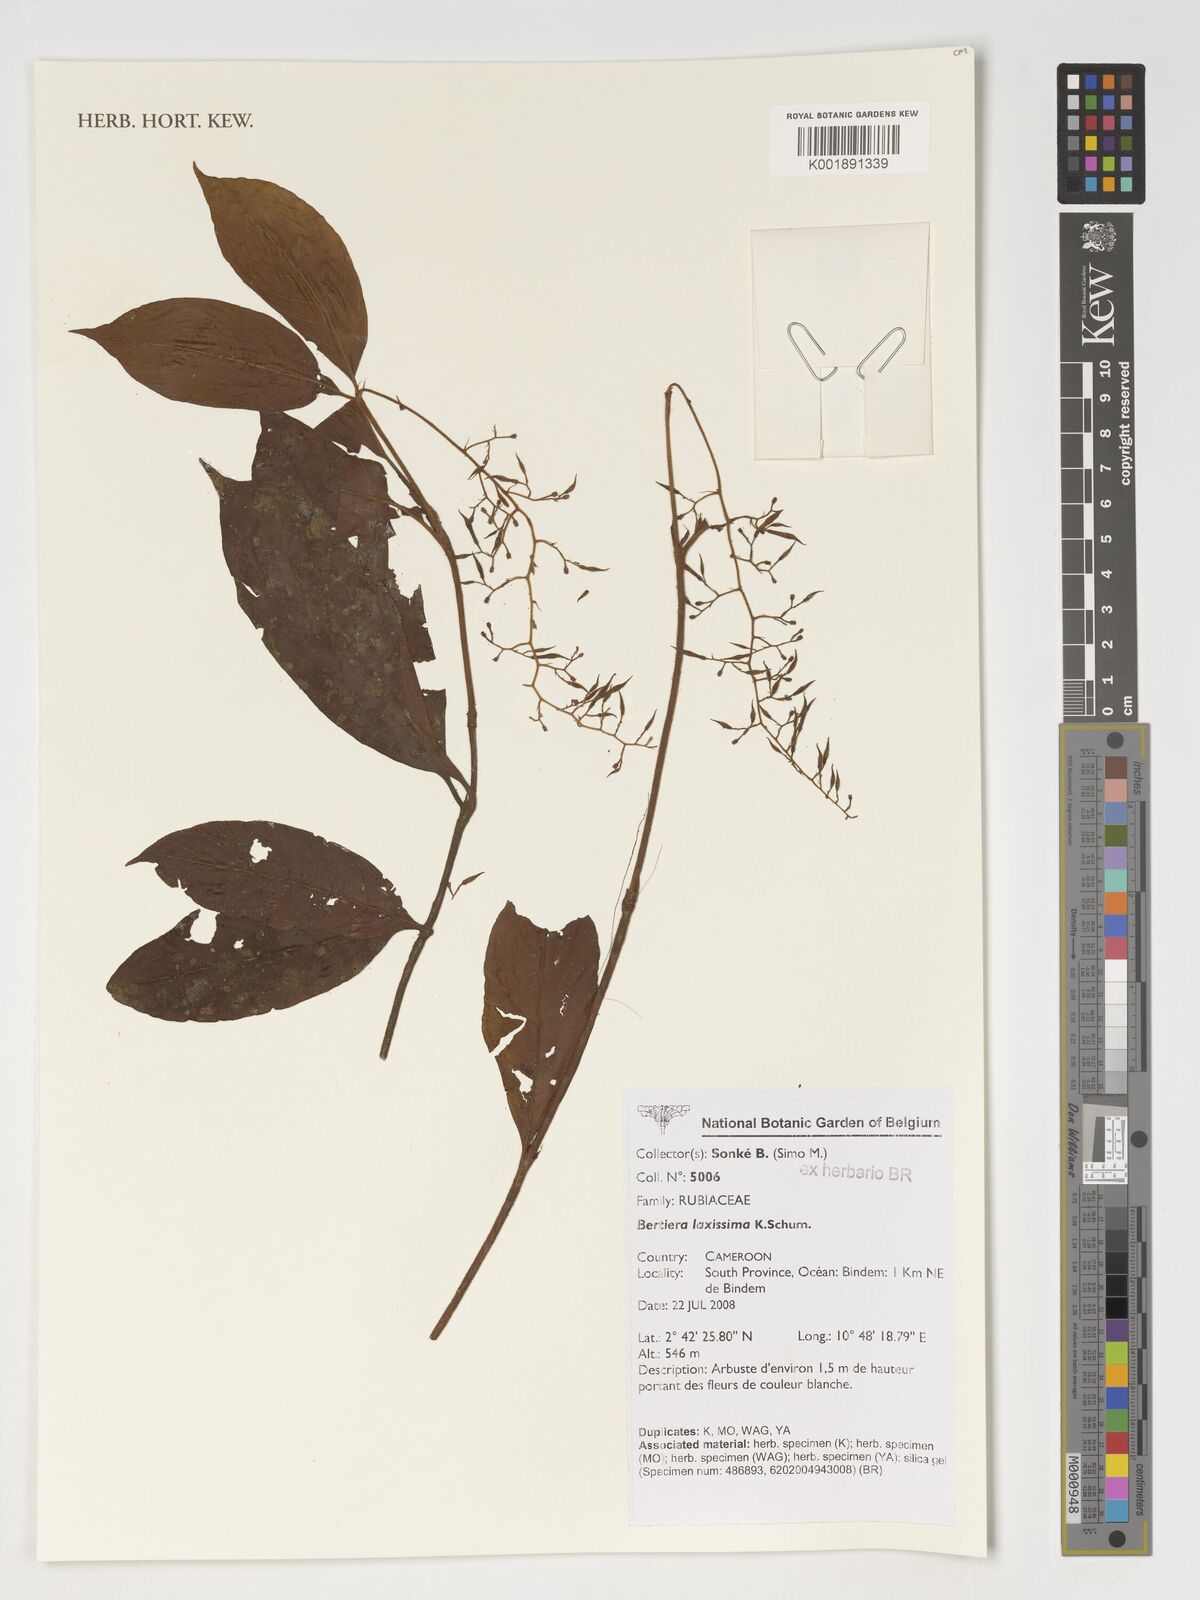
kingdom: Plantae
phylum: Tracheophyta
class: Magnoliopsida
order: Gentianales
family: Rubiaceae
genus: Bertiera
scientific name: Bertiera laxissima
